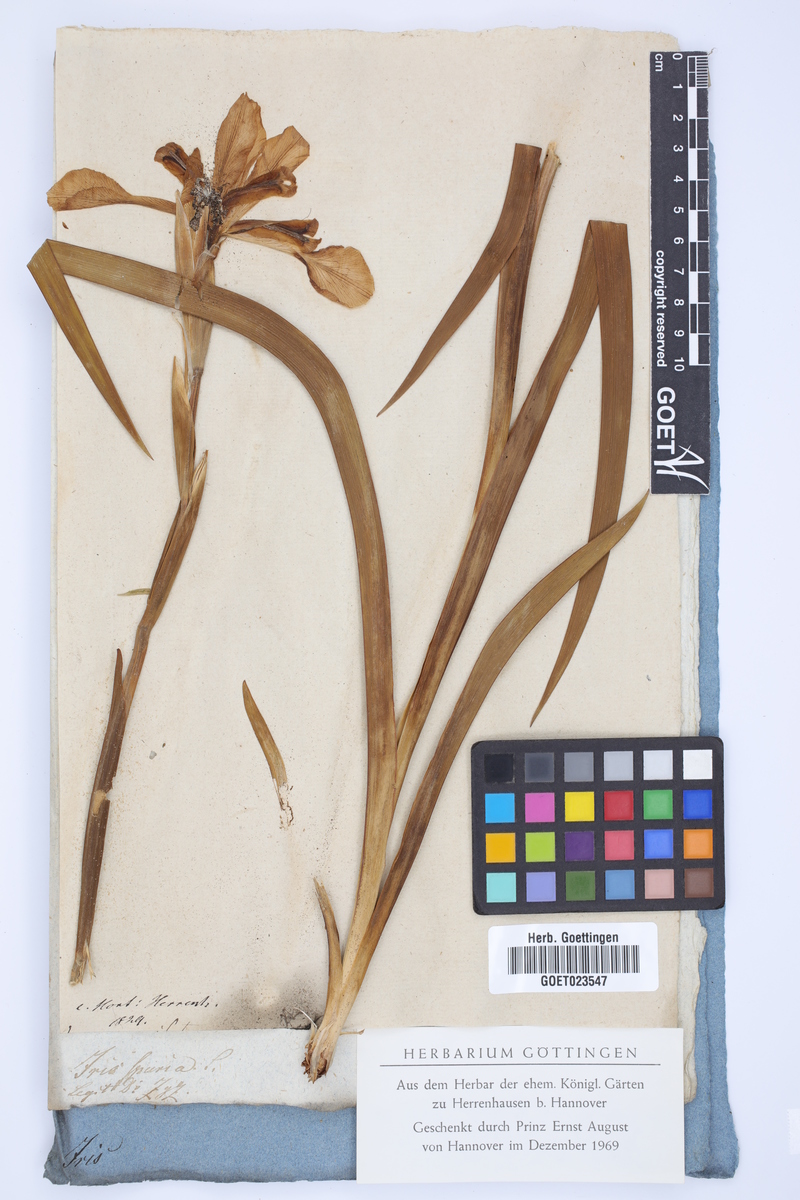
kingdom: Plantae
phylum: Tracheophyta
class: Liliopsida
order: Asparagales
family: Iridaceae
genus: Iris
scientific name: Iris spuria
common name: Blue iris
